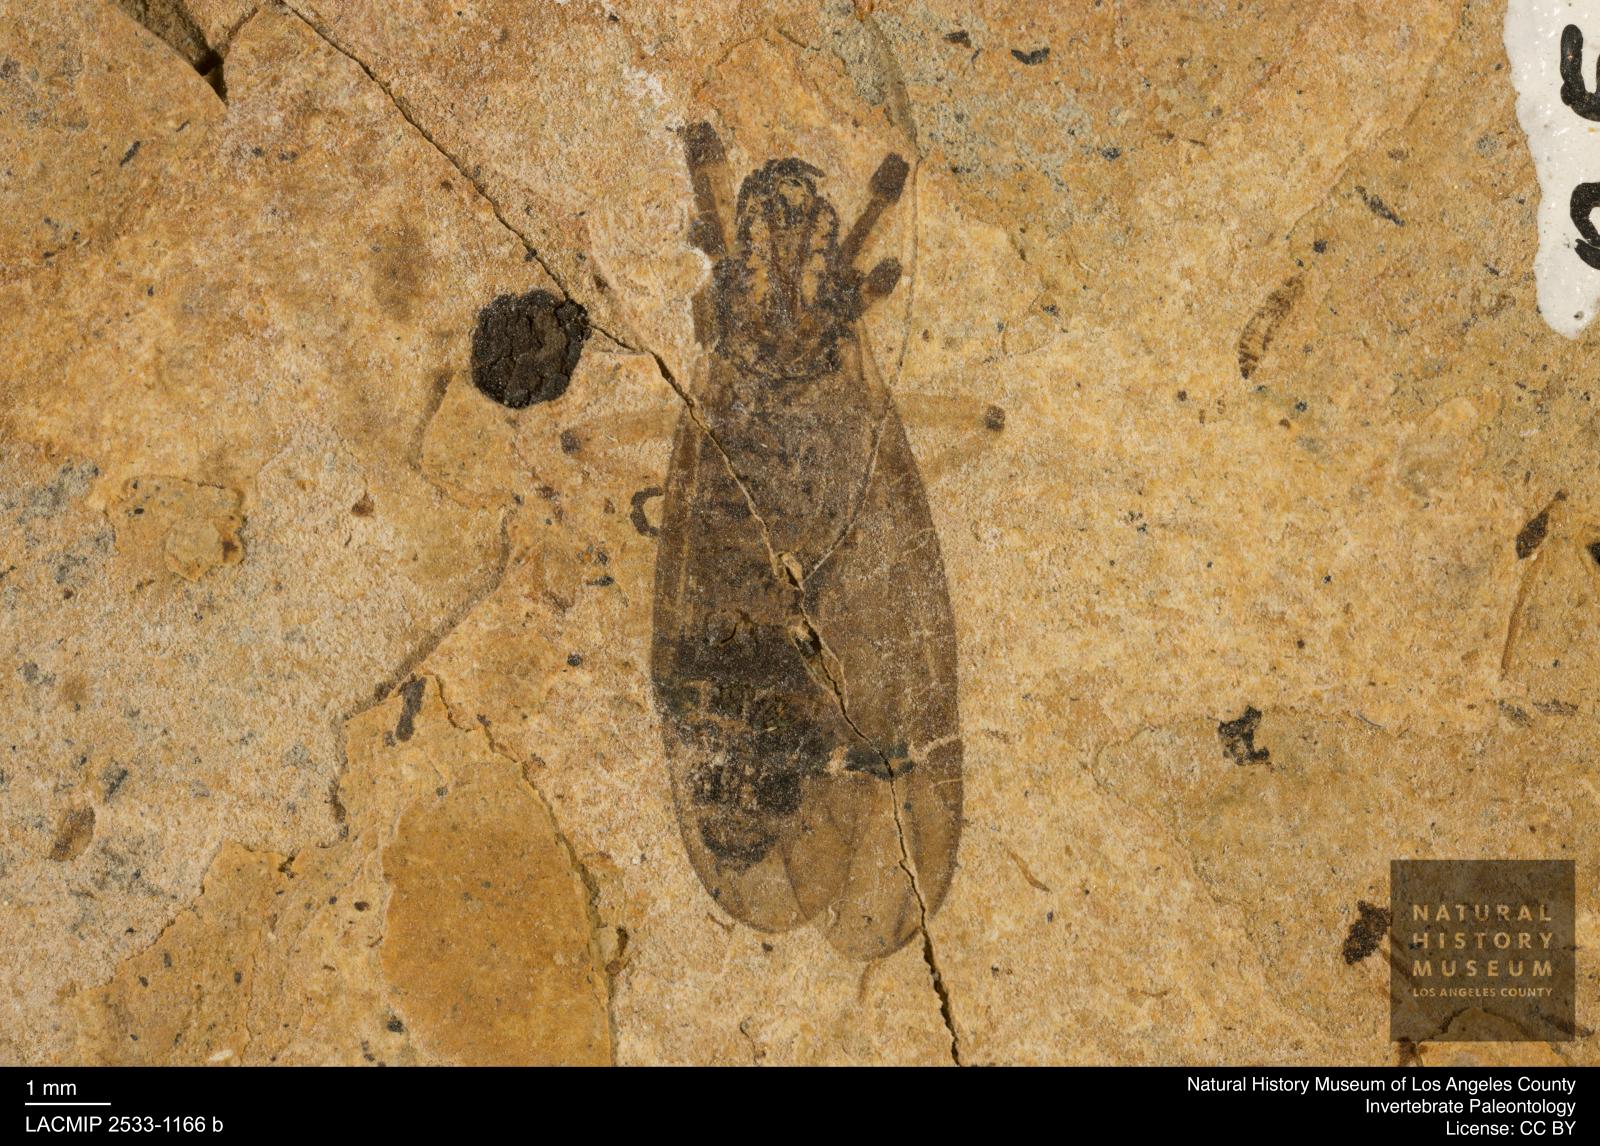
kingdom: Animalia
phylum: Arthropoda
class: Insecta
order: Diptera
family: Bibionidae
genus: Plecia
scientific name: Plecia hypogaea
